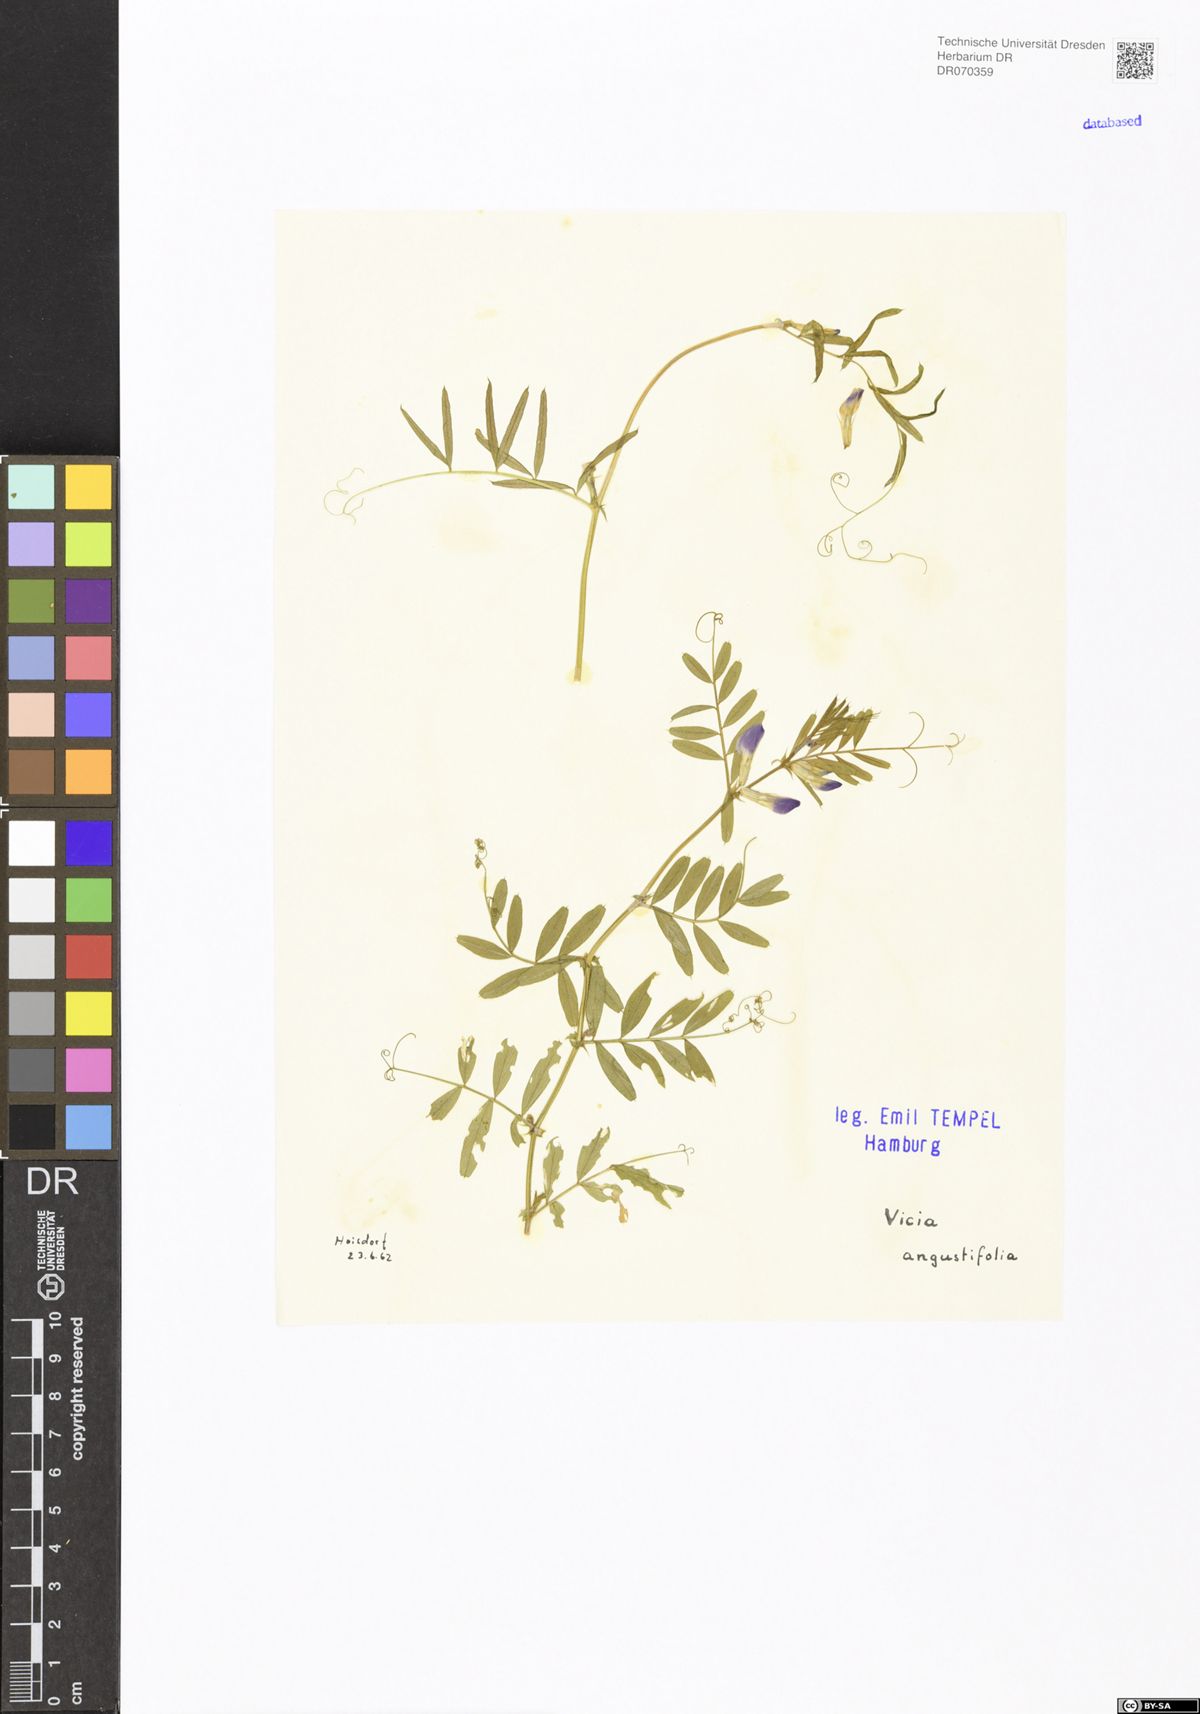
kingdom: Plantae
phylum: Tracheophyta
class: Magnoliopsida
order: Fabales
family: Fabaceae
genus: Vicia
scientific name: Vicia sativa
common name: Garden vetch
